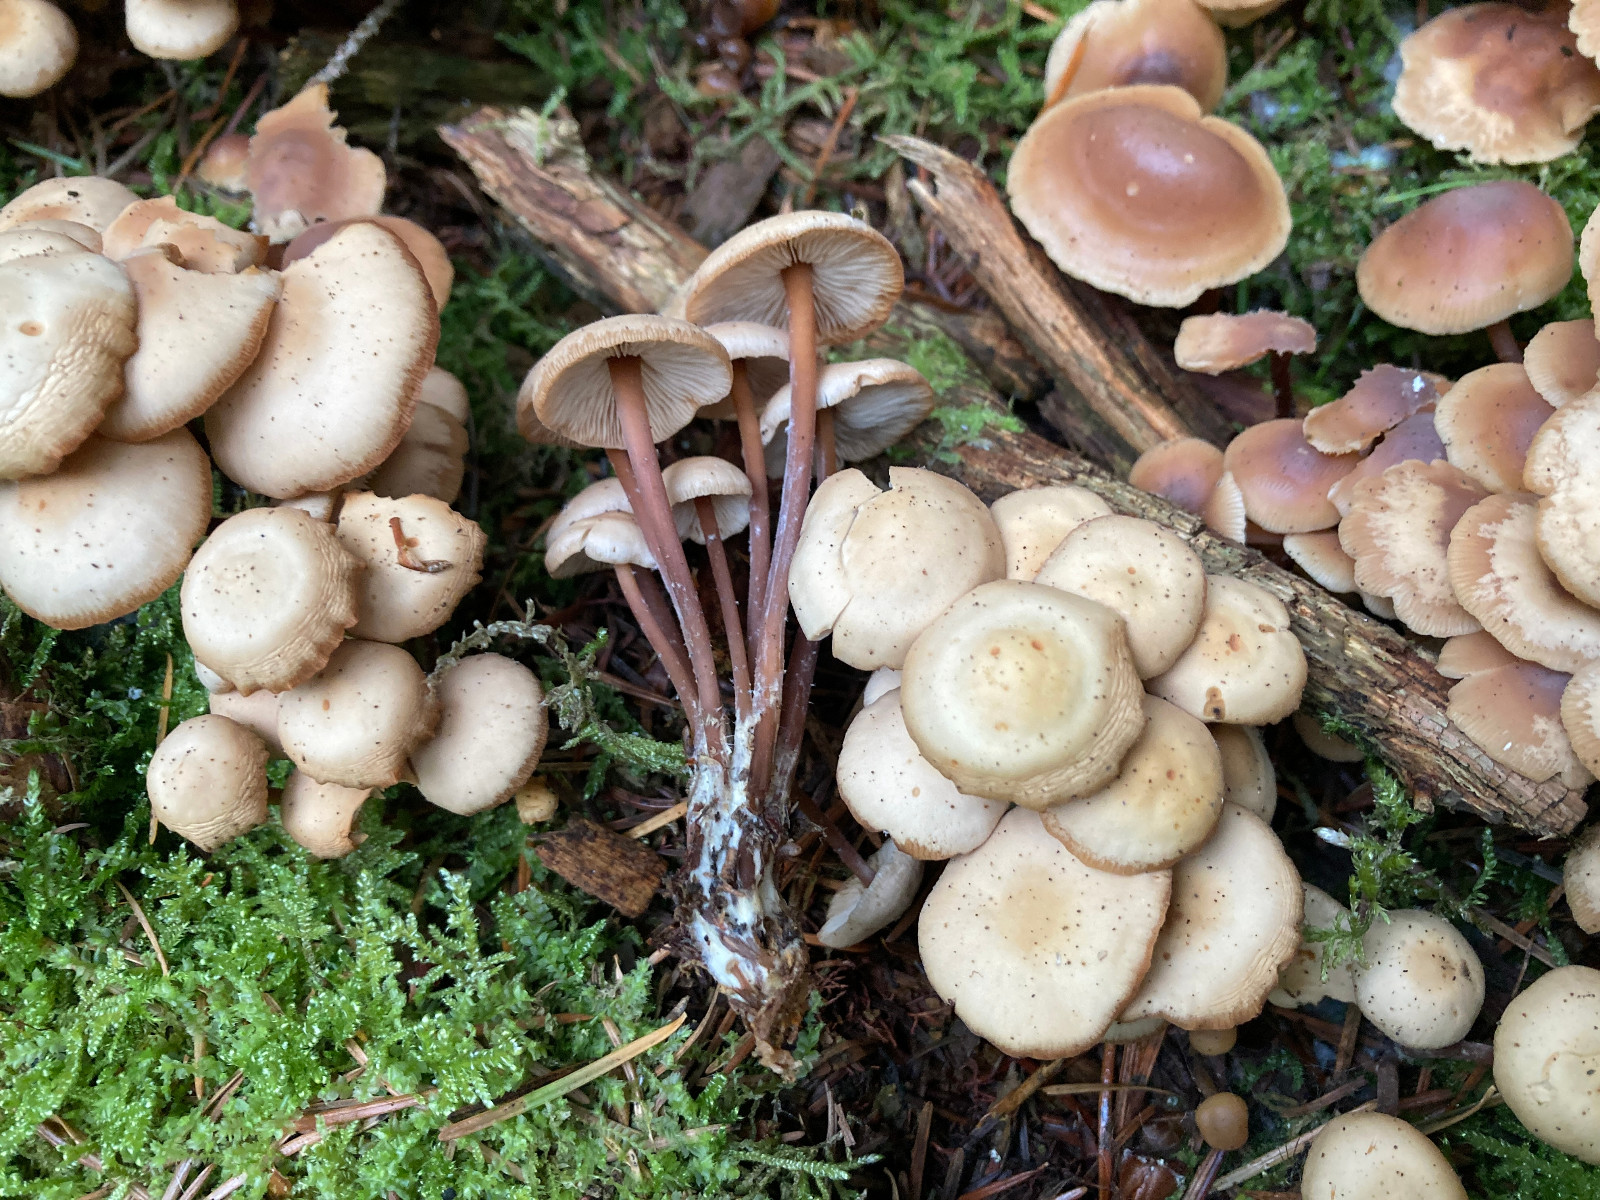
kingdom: Fungi
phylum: Basidiomycota
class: Agaricomycetes
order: Agaricales
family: Omphalotaceae
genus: Connopus
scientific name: Connopus acervatus
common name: tue-fladhat
